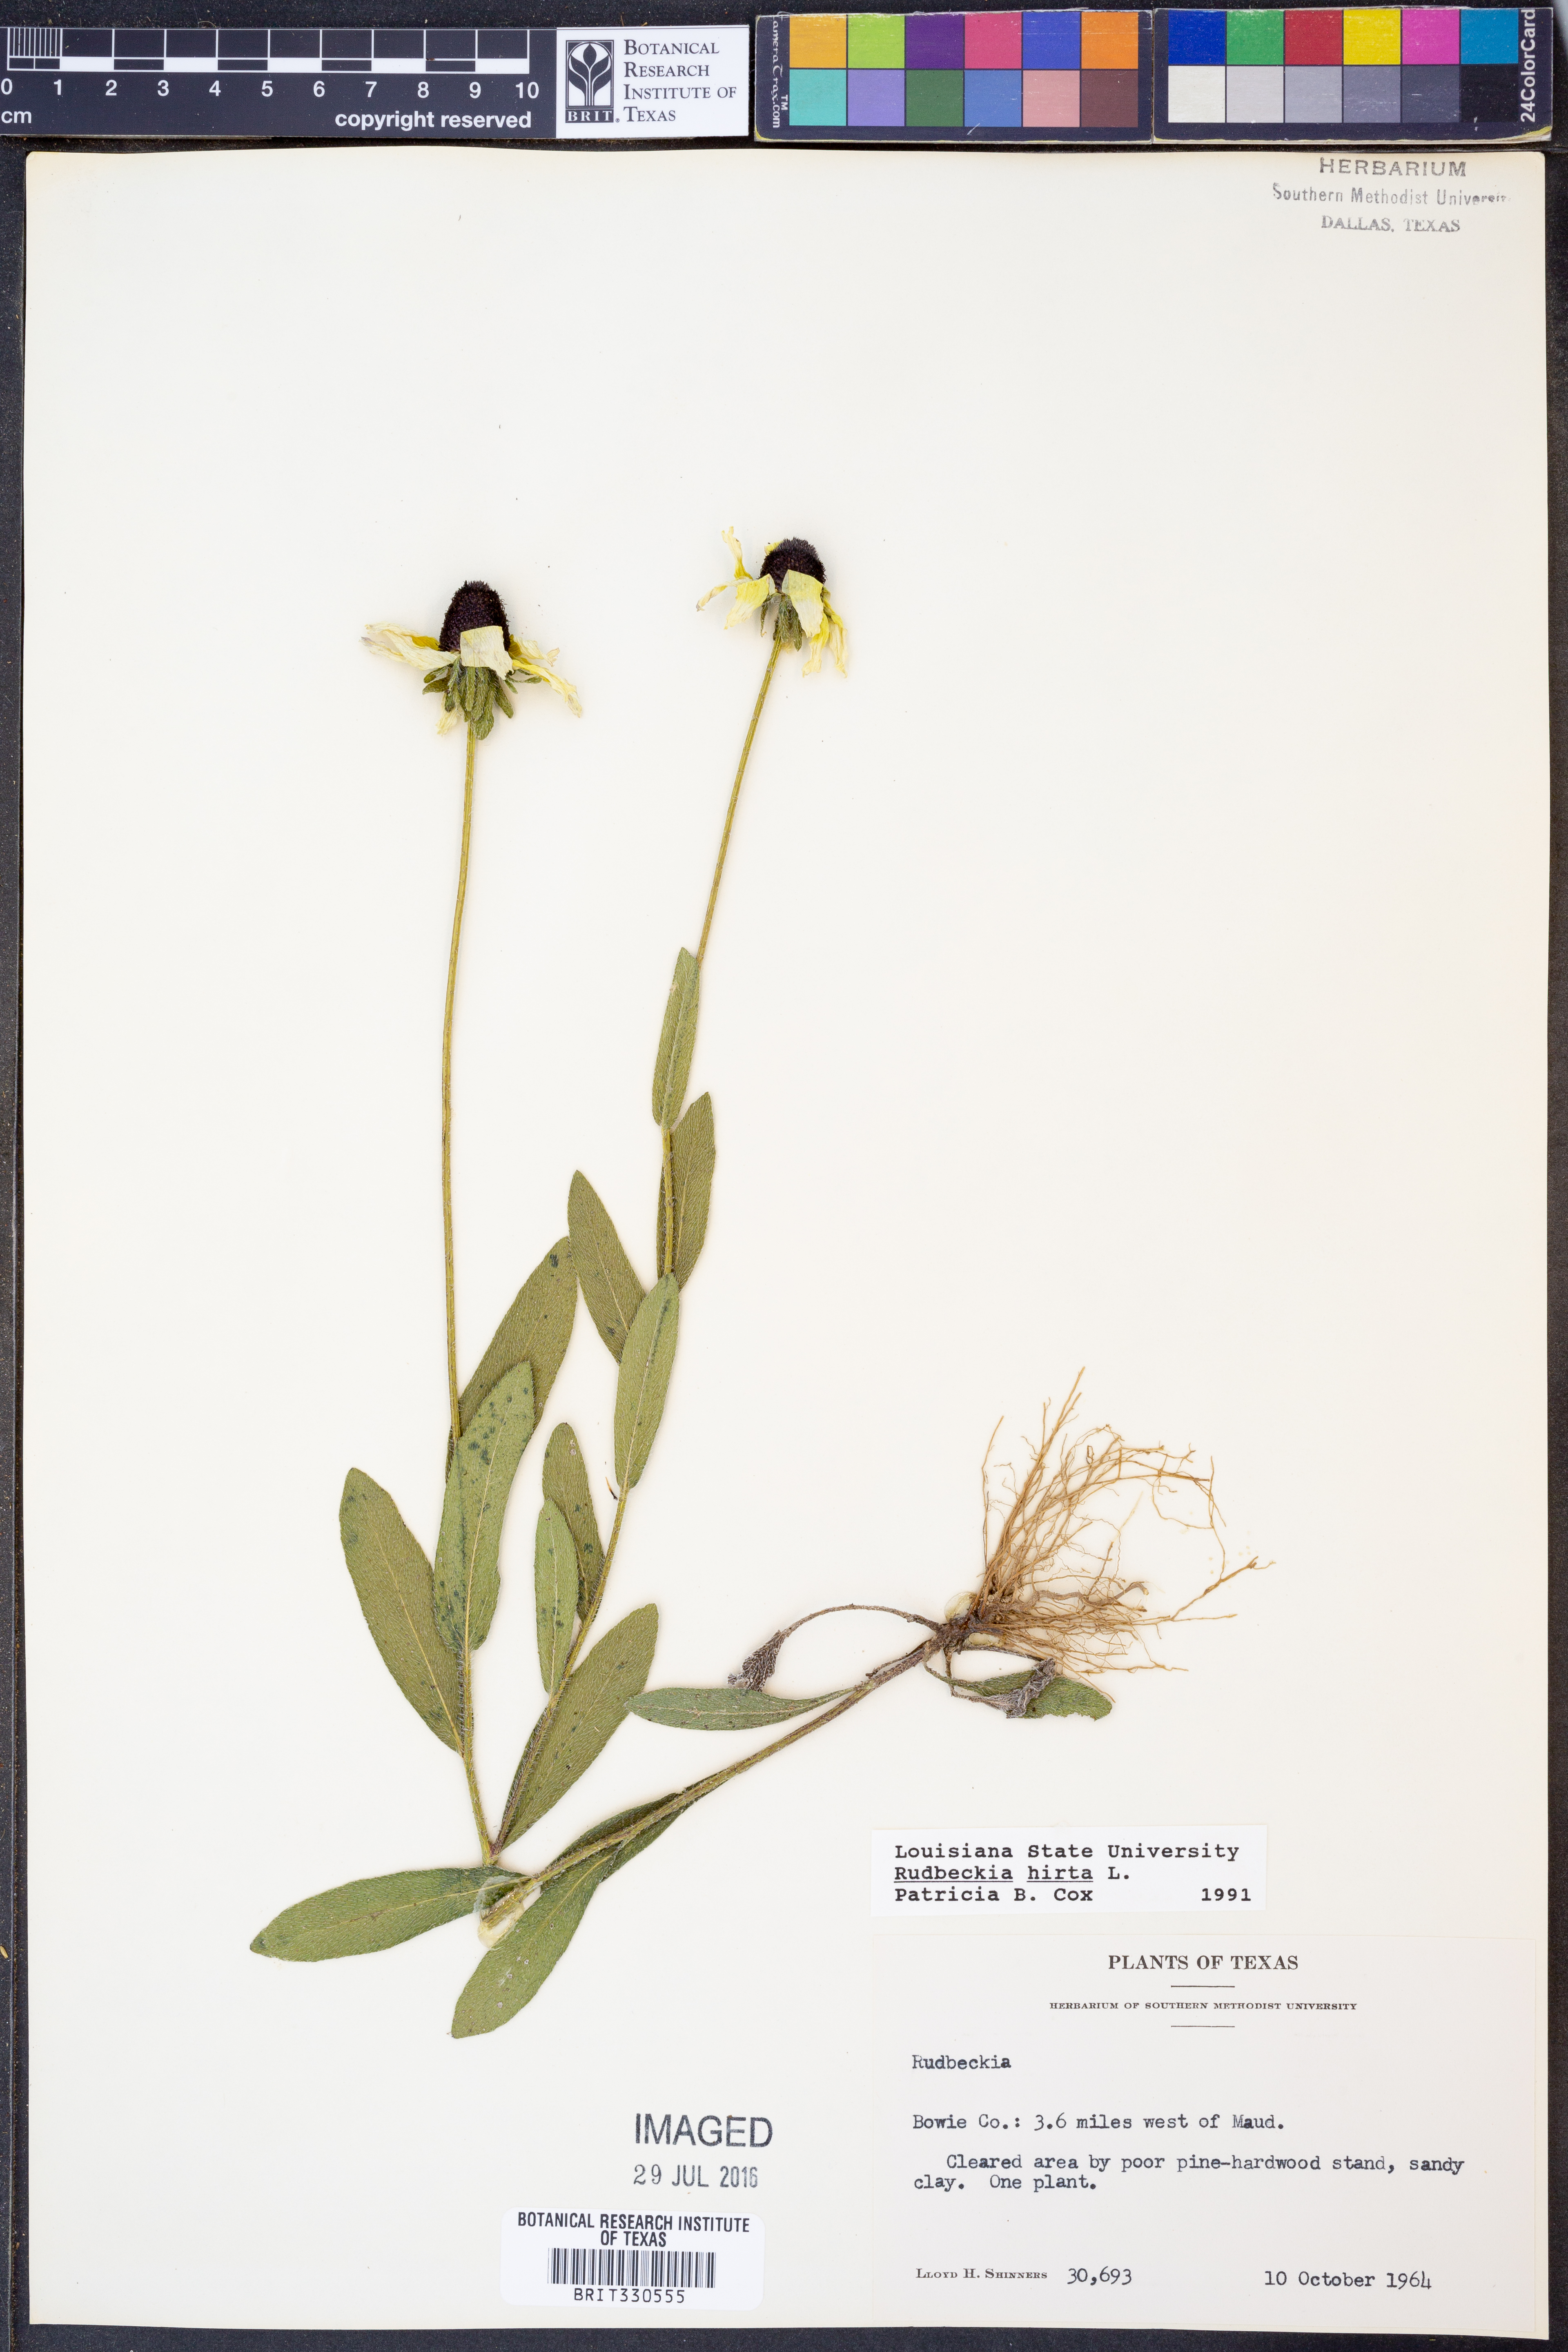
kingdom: Plantae
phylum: Tracheophyta
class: Magnoliopsida
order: Asterales
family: Asteraceae
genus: Rudbeckia
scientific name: Rudbeckia hirta
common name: Black-eyed-susan
